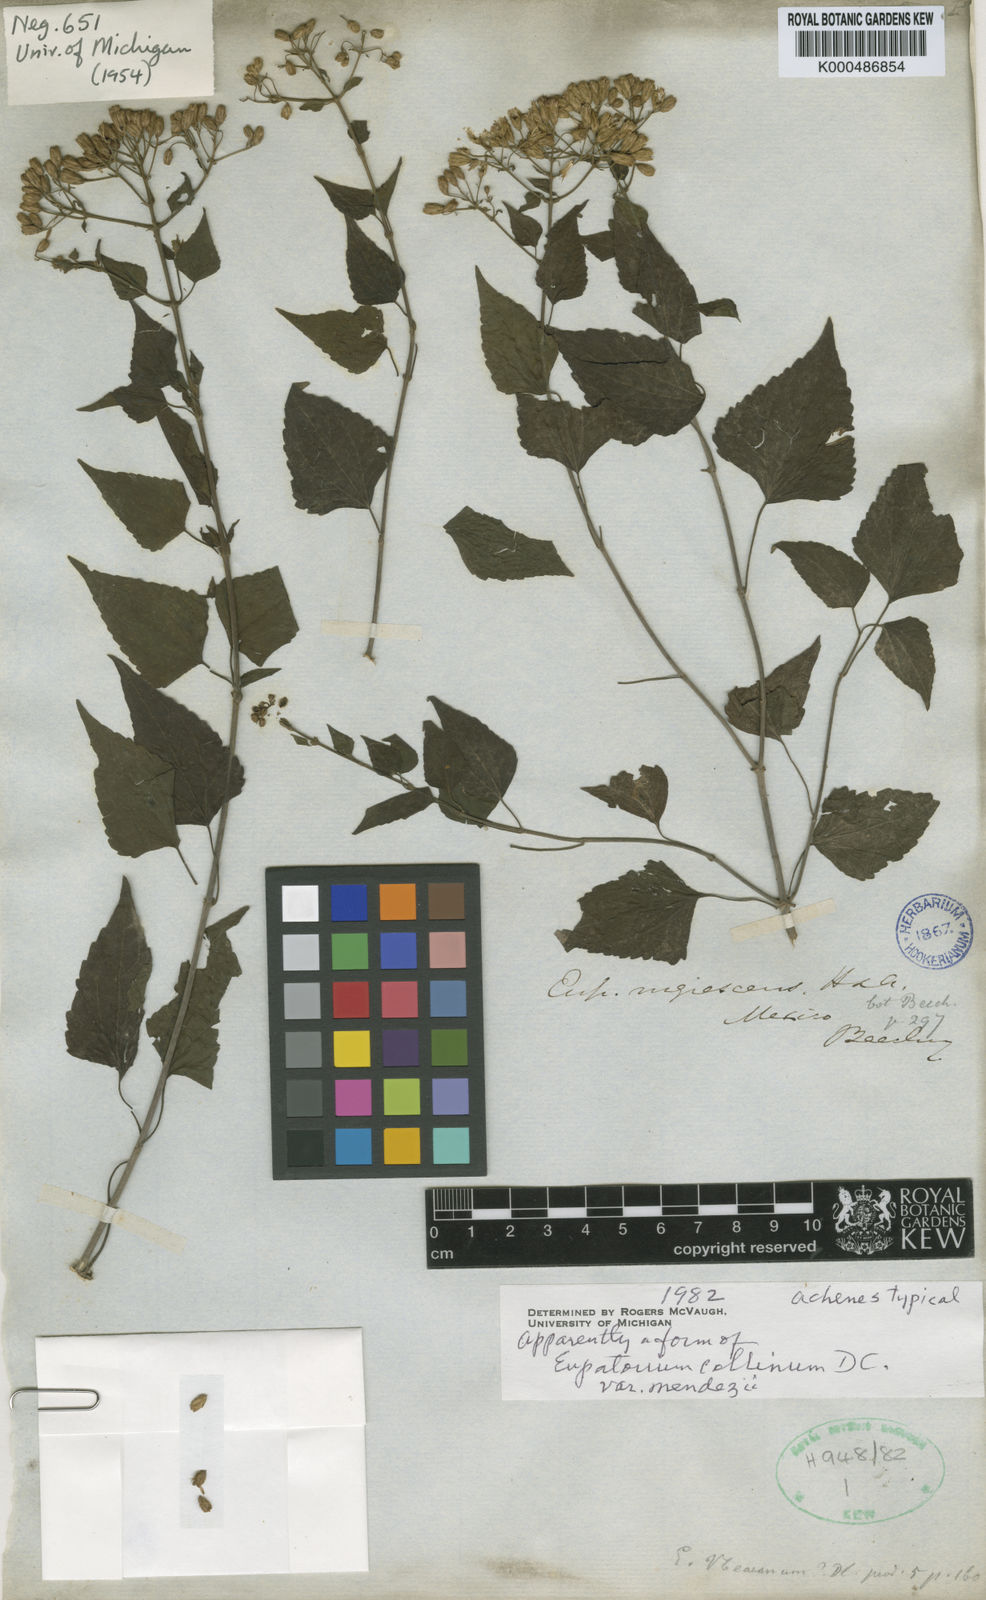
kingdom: Plantae
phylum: Tracheophyta
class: Magnoliopsida
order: Asterales
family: Asteraceae
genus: Chromolaena
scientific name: Chromolaena collina
